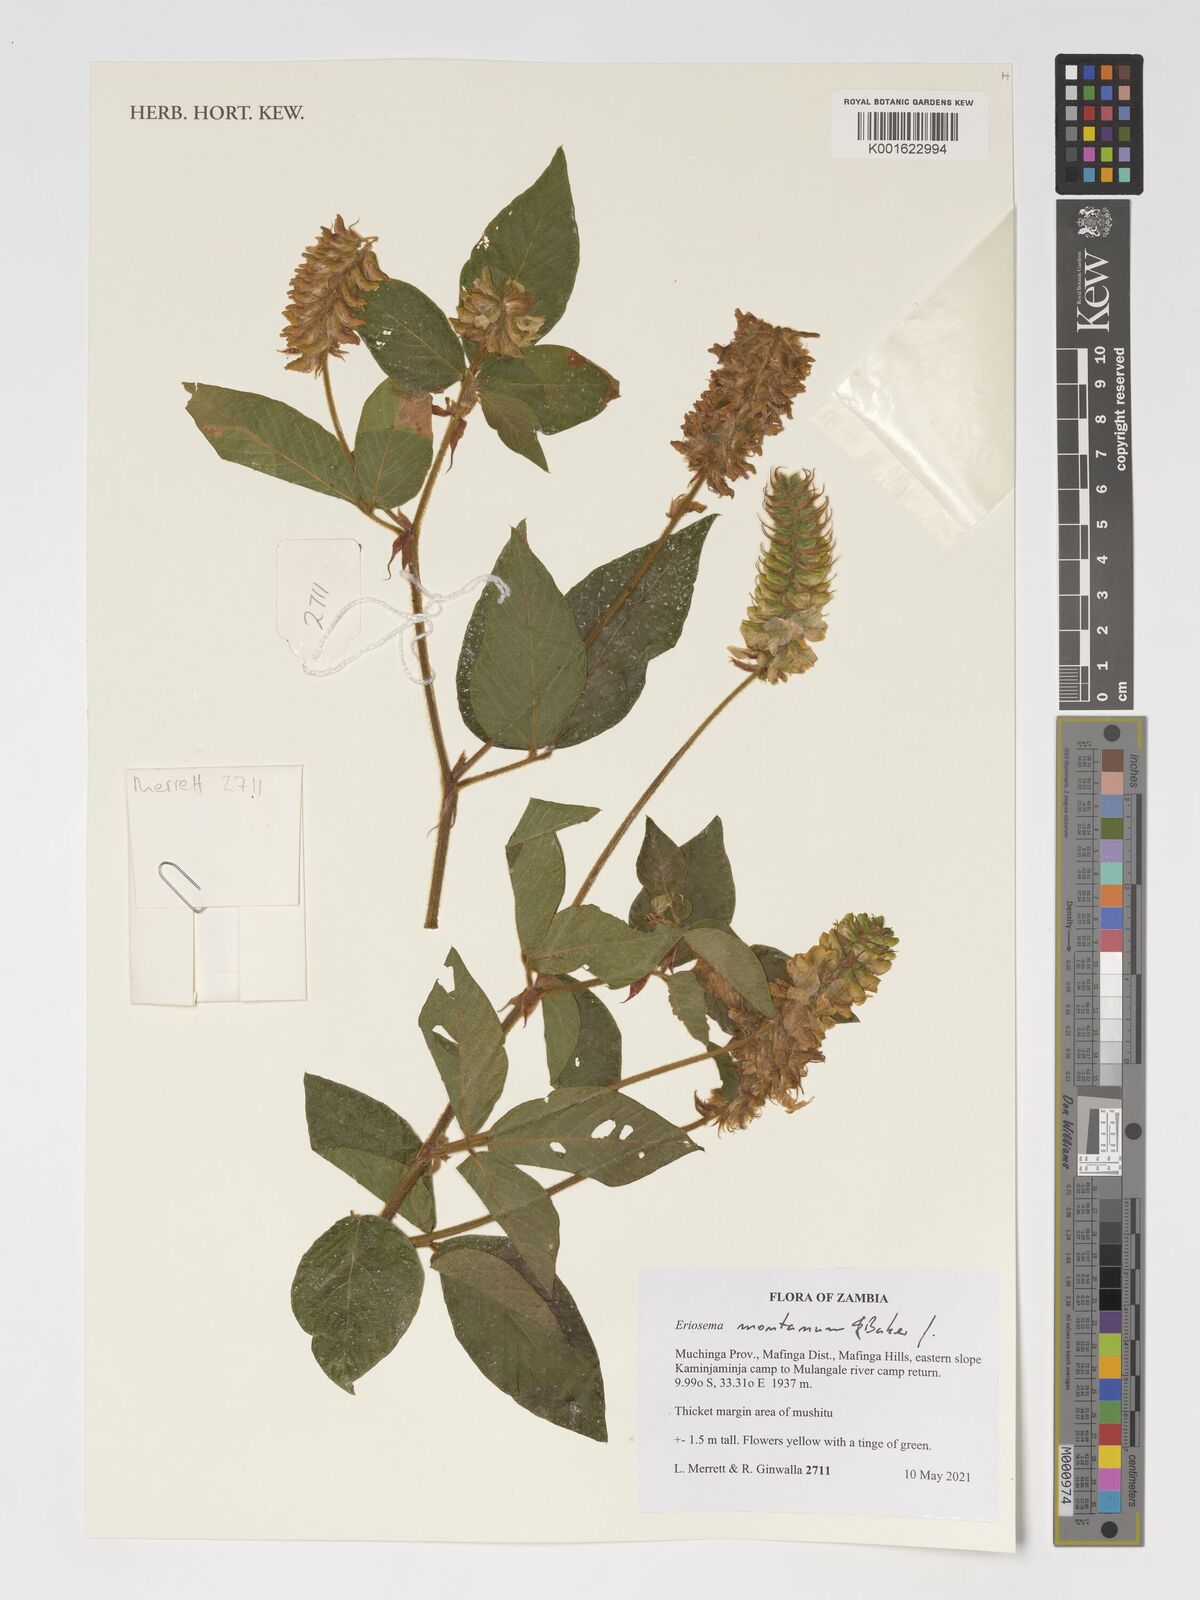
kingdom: Plantae
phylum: Tracheophyta
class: Magnoliopsida
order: Fabales
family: Fabaceae
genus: Eriosema
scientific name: Eriosema montanum
